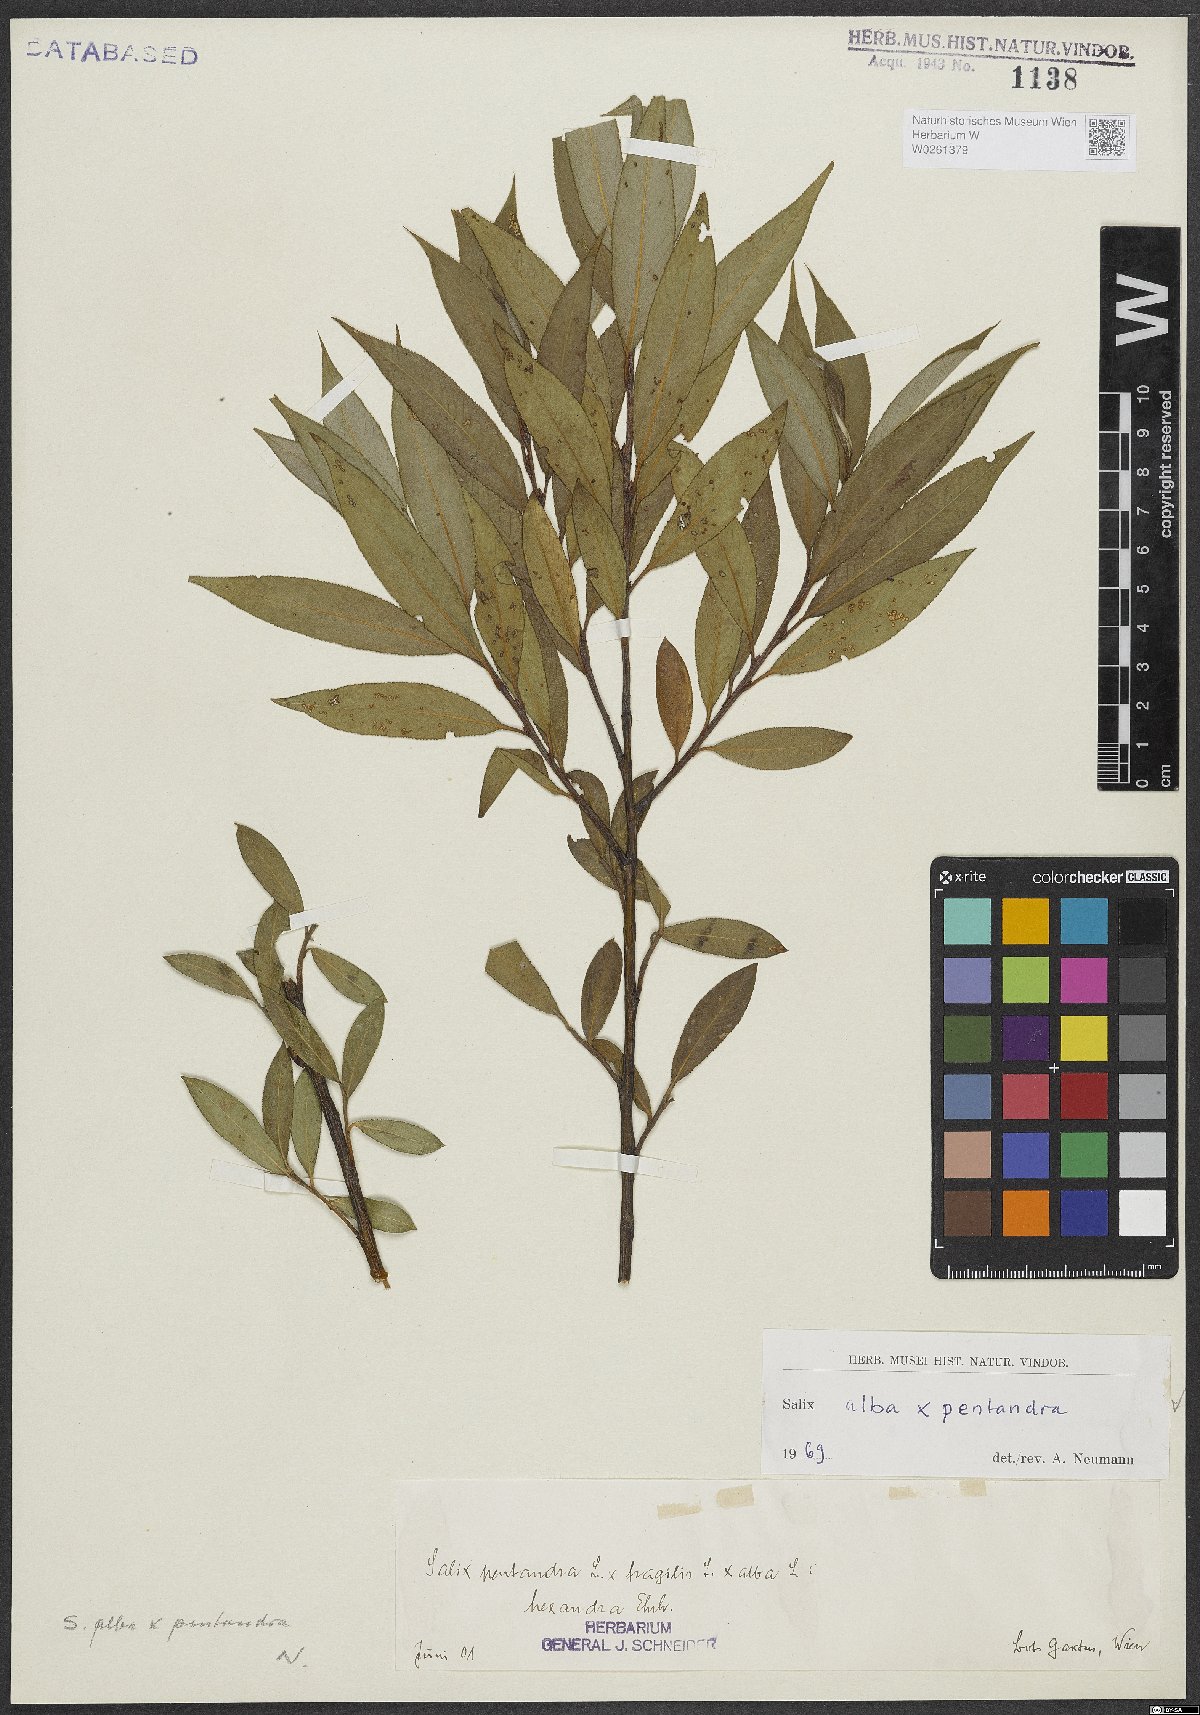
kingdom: Plantae
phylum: Tracheophyta
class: Magnoliopsida
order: Malpighiales
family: Salicaceae
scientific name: Salicaceae
